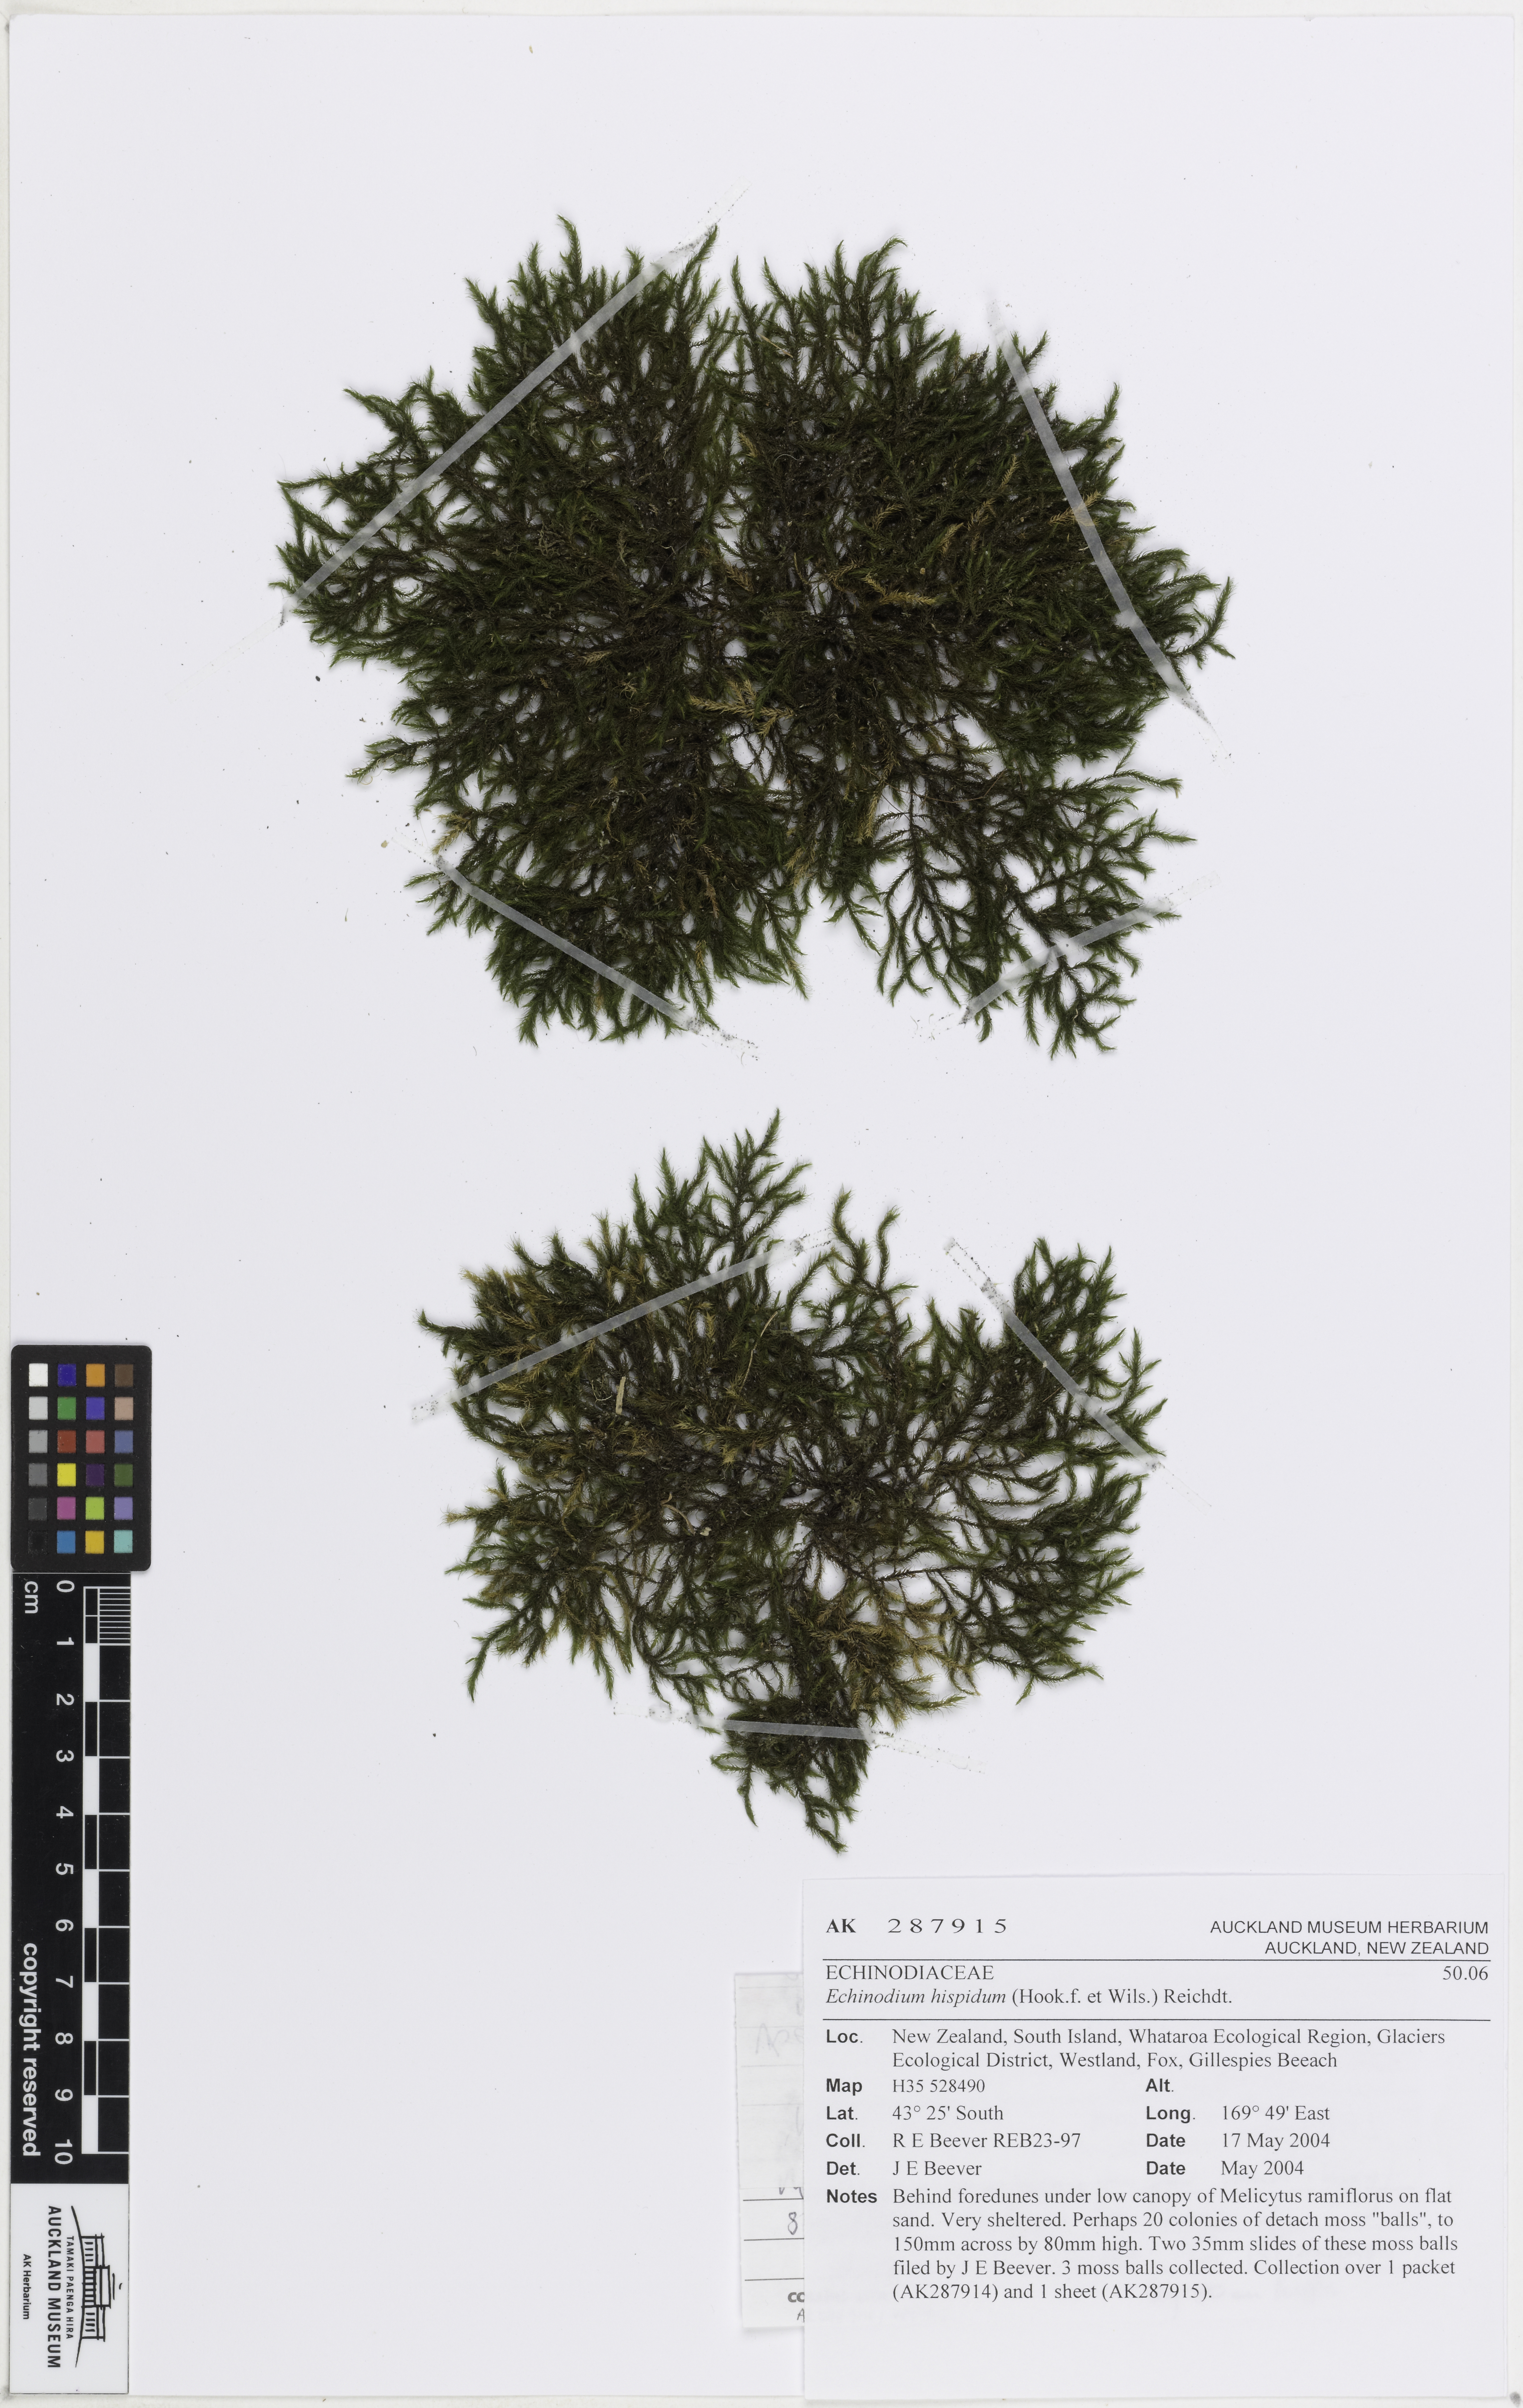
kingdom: Plantae
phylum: Bryophyta
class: Bryopsida
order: Hypnales
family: Echinodiaceae
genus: Echinodium
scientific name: Echinodium hispidum
